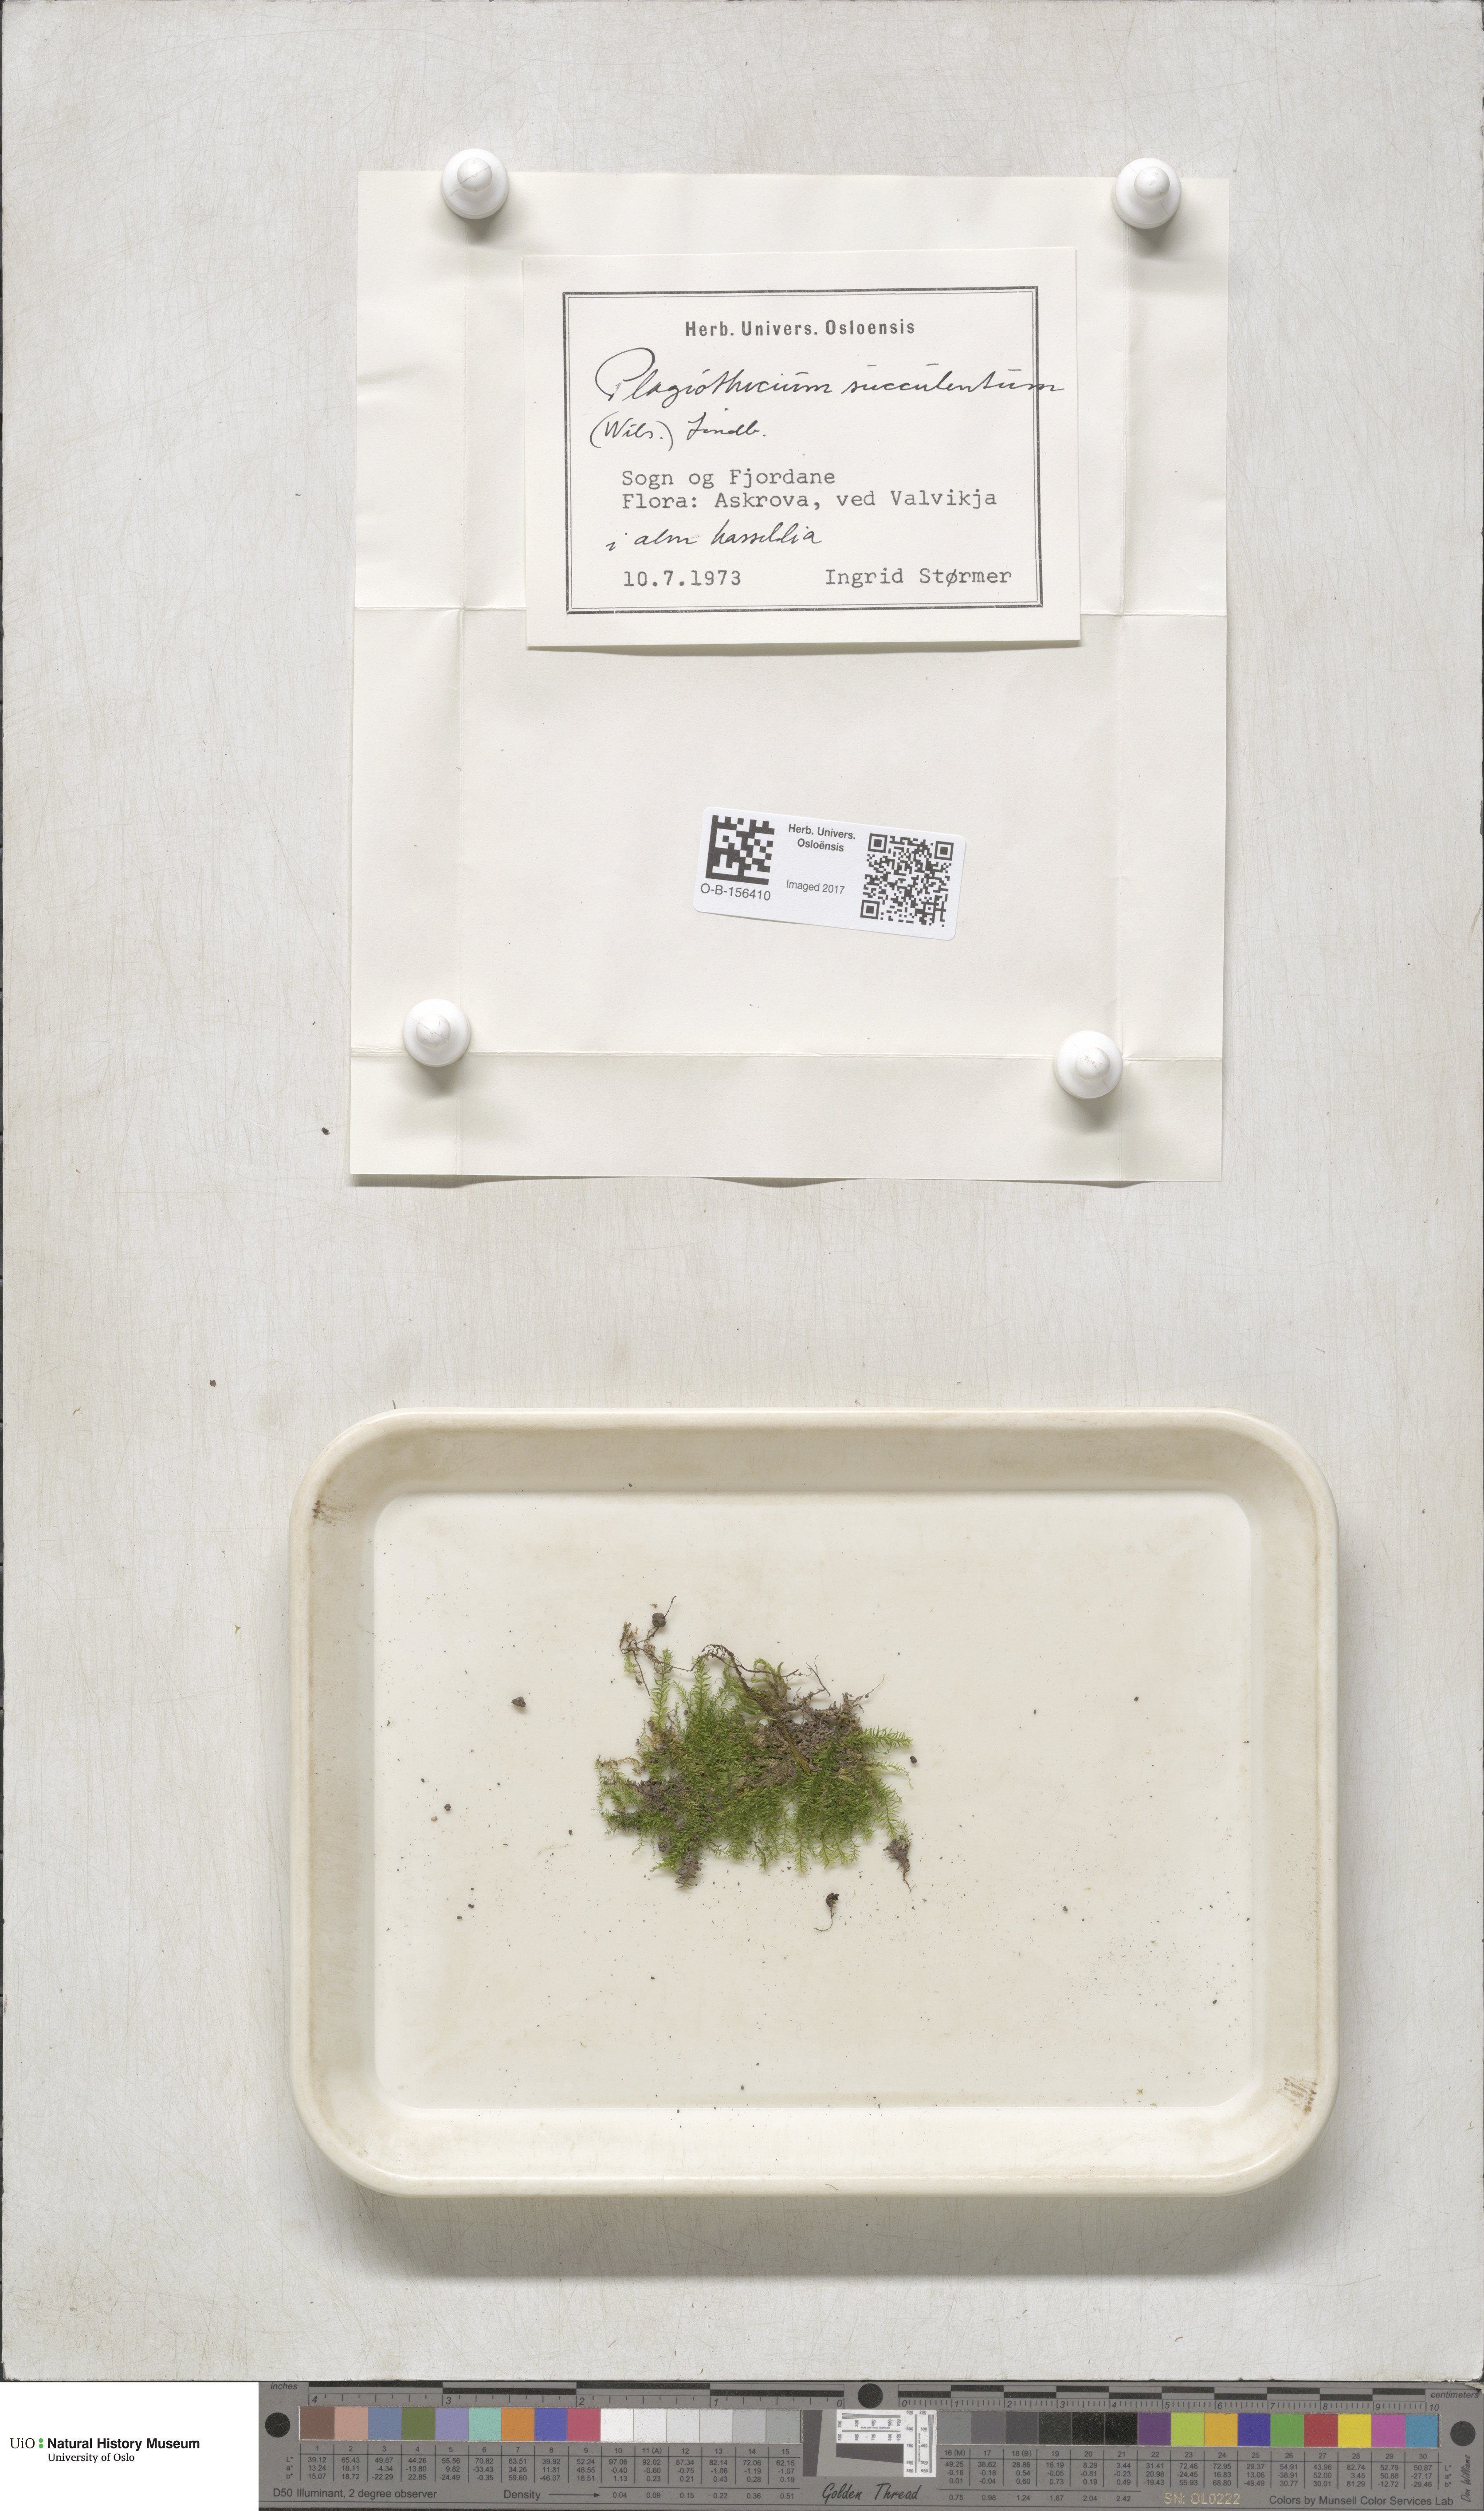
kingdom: Plantae
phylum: Bryophyta
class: Bryopsida
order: Hypnales
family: Plagiotheciaceae
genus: Plagiothecium
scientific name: Plagiothecium nemorale
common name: Woodsy silk-moss
